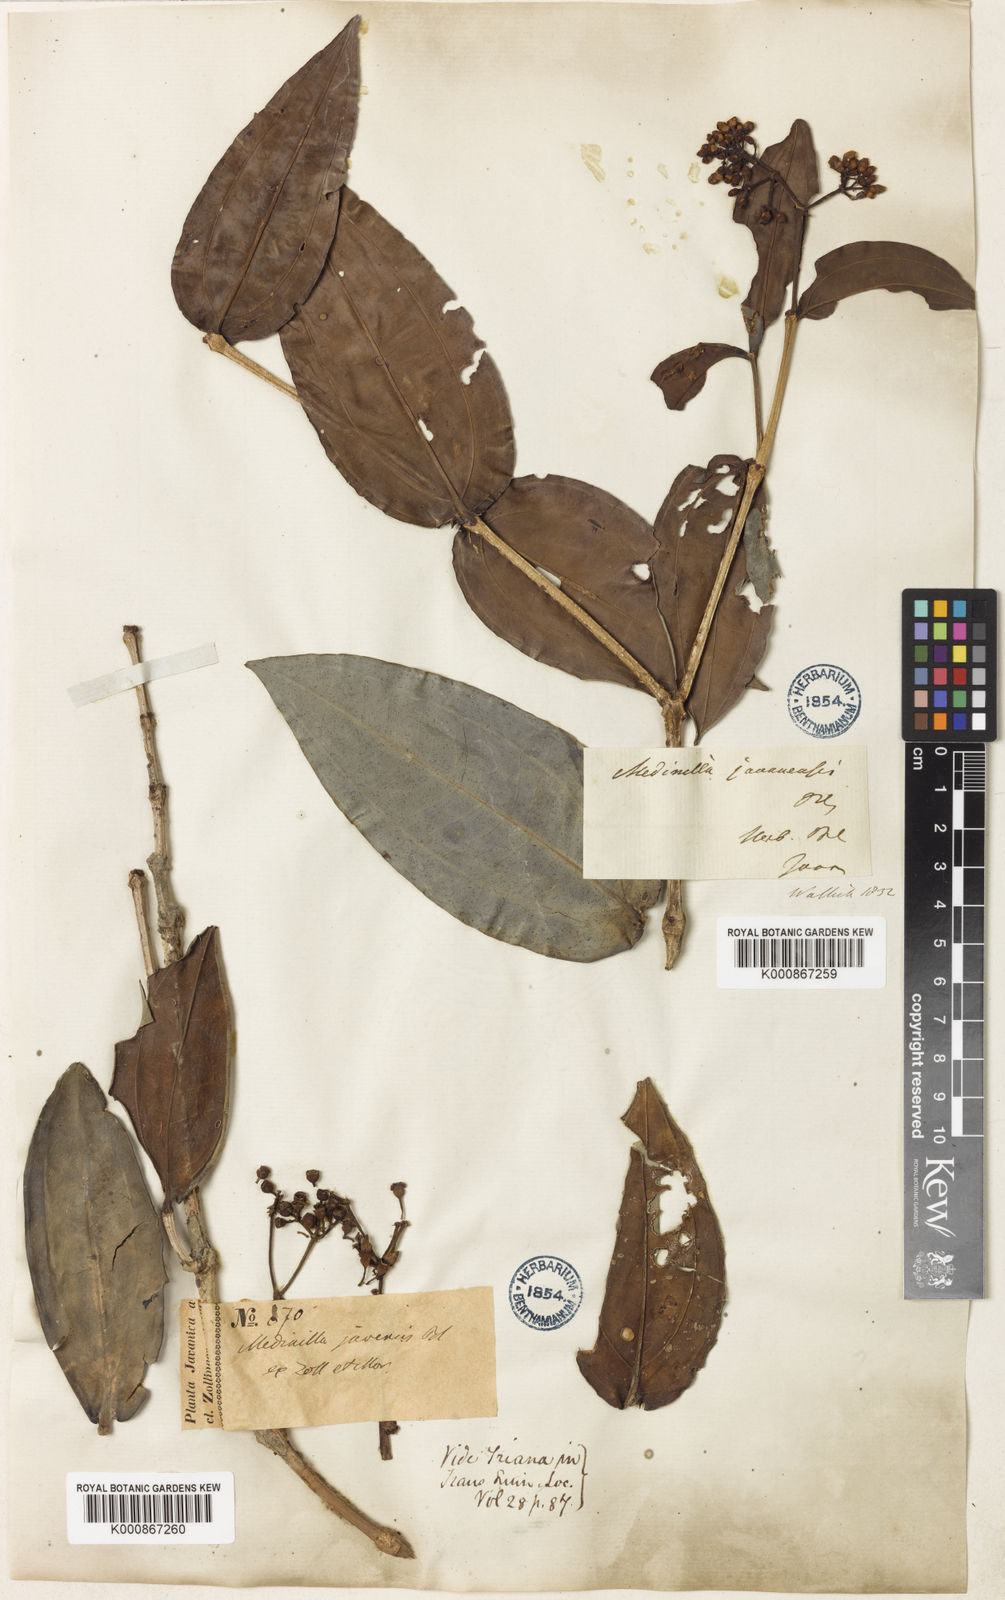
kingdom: Plantae
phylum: Tracheophyta
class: Magnoliopsida
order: Myrtales
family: Melastomataceae
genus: Medinilla
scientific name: Medinilla alpestris
